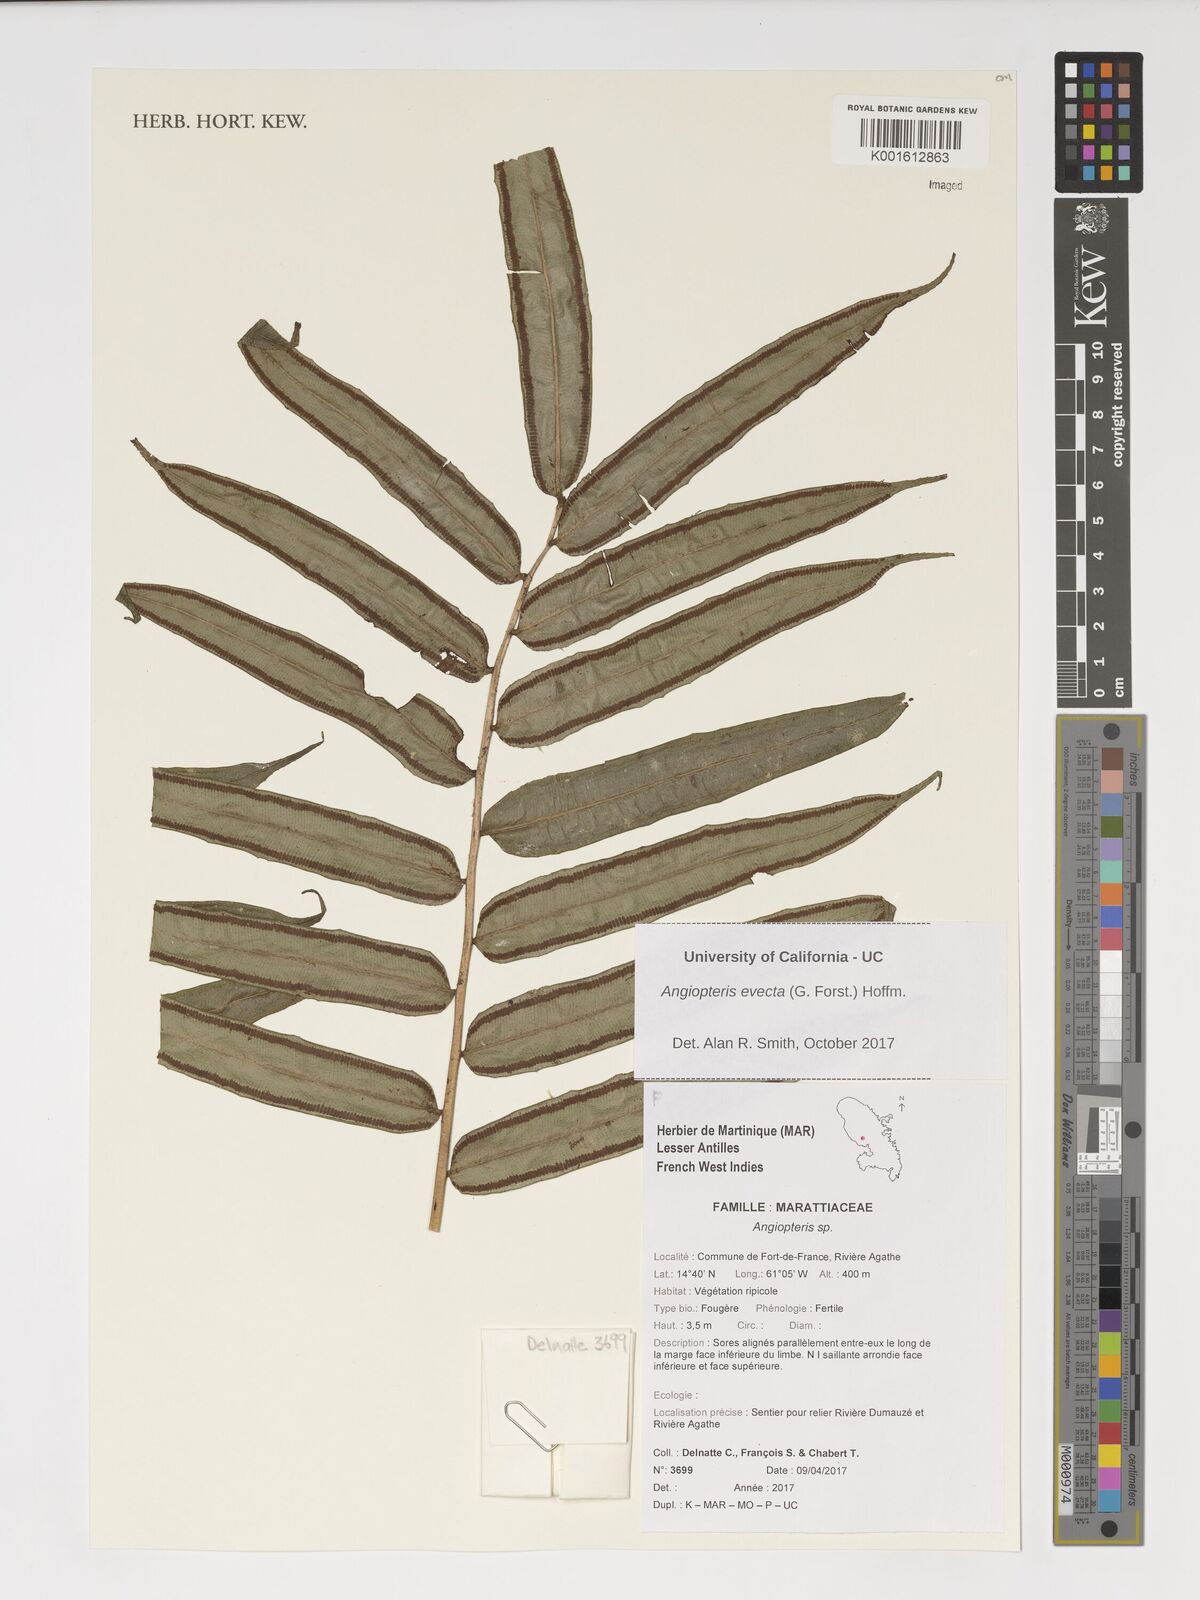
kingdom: Plantae
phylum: Tracheophyta
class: Polypodiopsida
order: Marattiales
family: Marattiaceae
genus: Angiopteris
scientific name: Angiopteris evecta
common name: Mule's-foot fern
